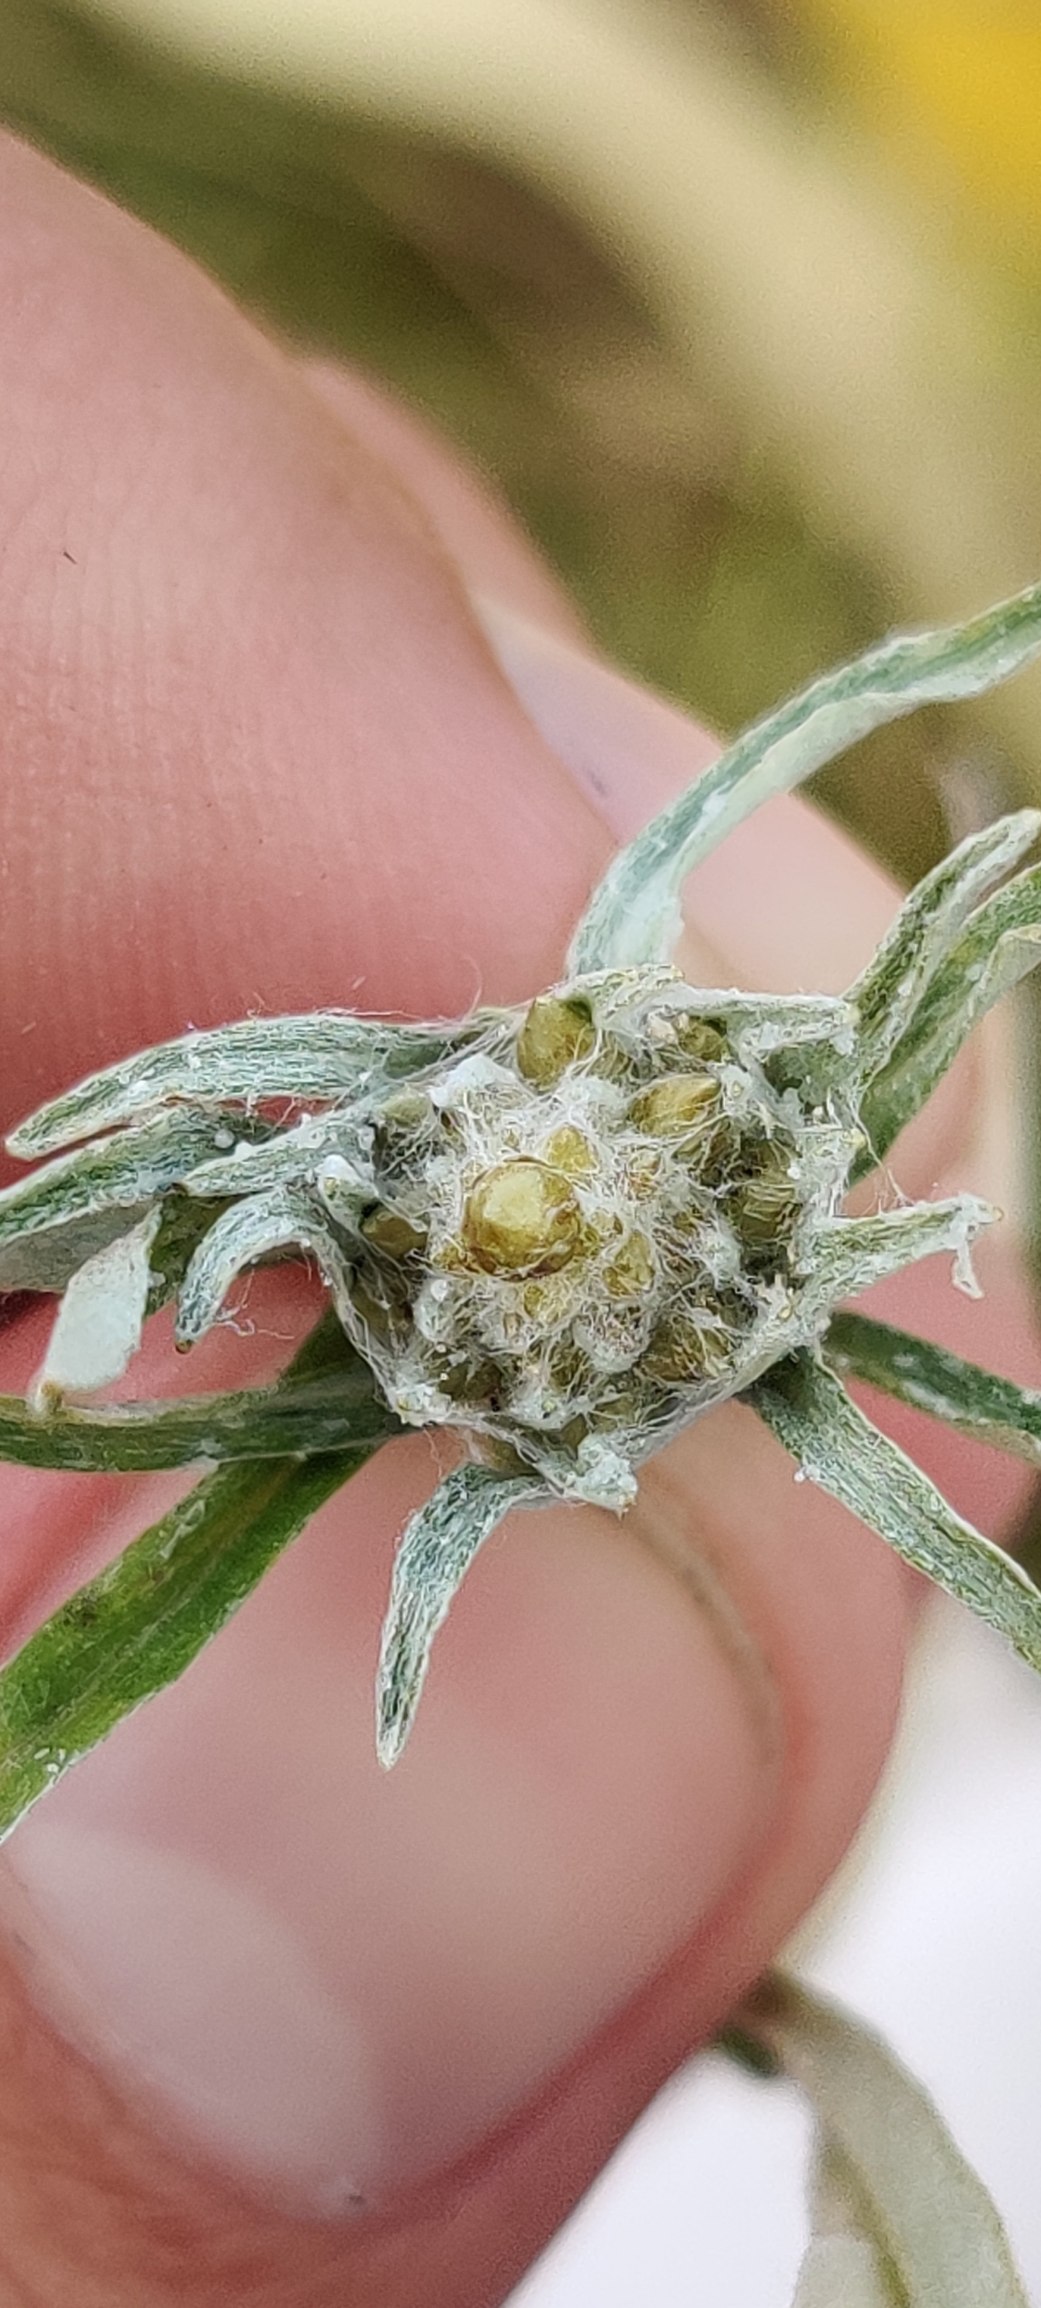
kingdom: Plantae
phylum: Tracheophyta
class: Magnoliopsida
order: Asterales
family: Asteraceae
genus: Omalotheca
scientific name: Omalotheca sylvatica
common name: Rank evighedsblomst
